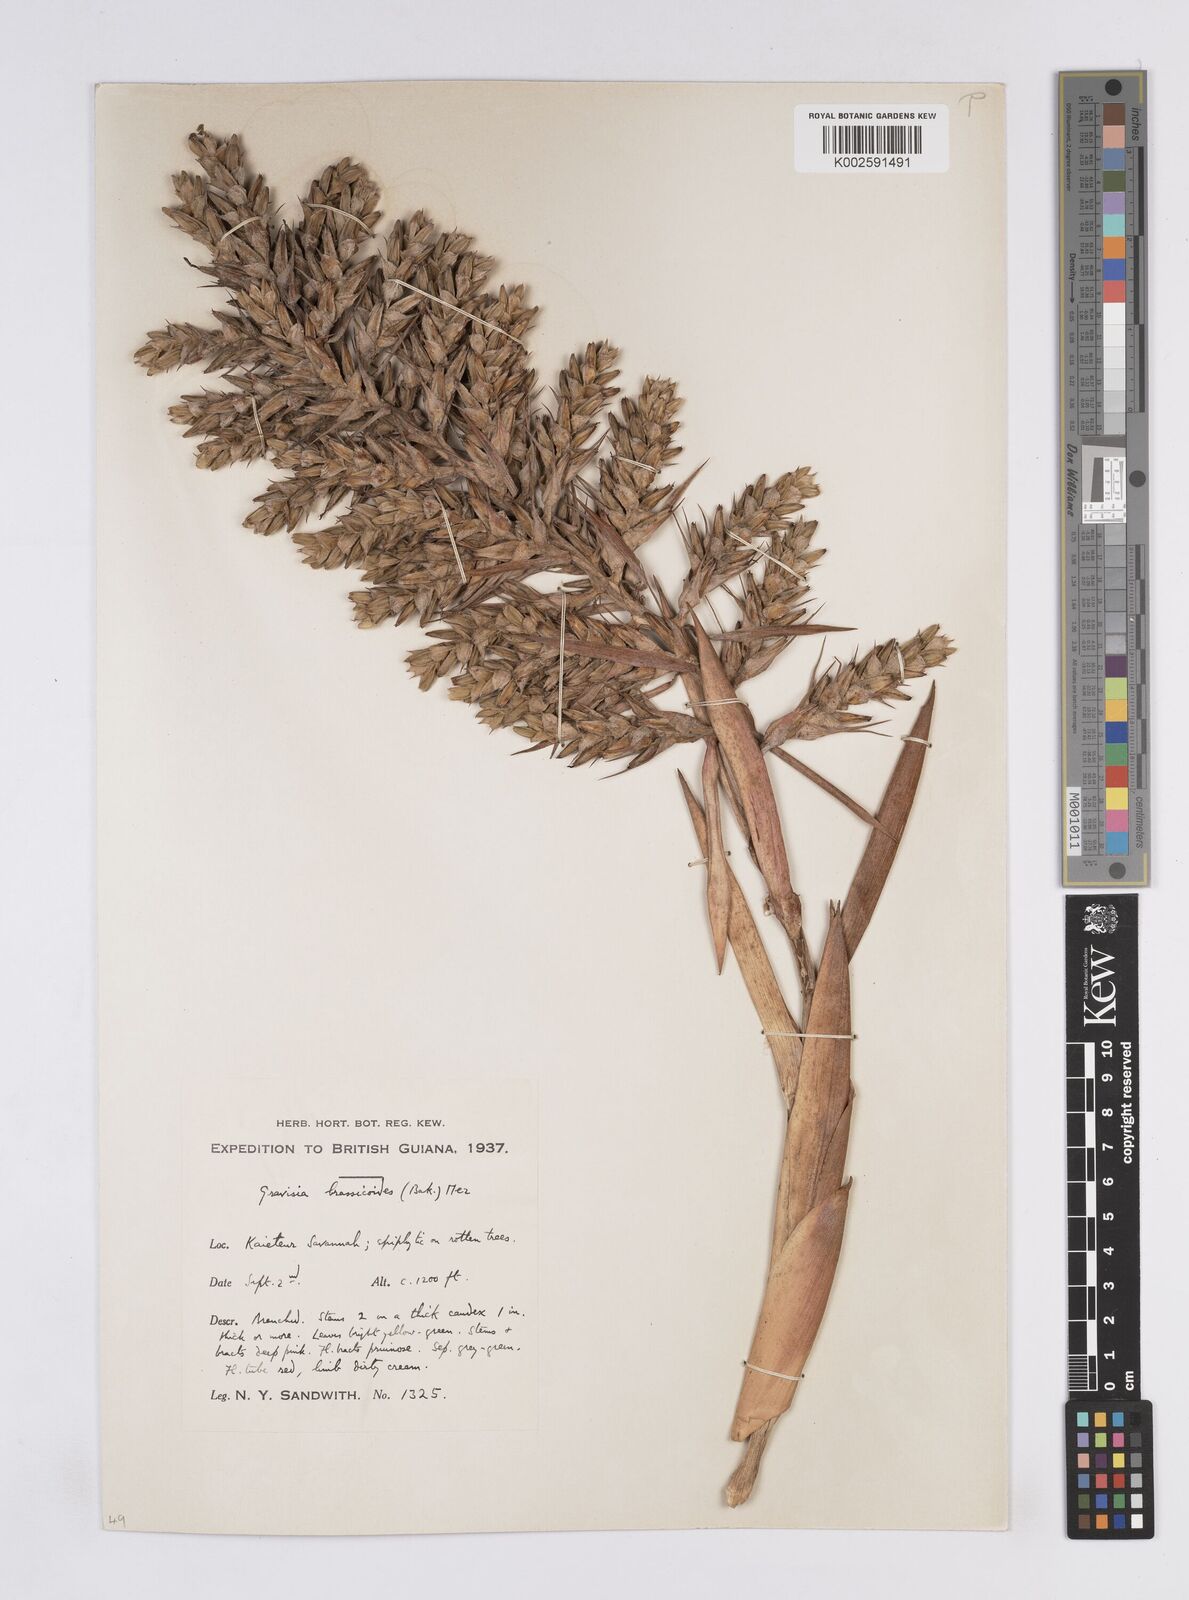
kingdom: Plantae
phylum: Tracheophyta
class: Liliopsida
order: Poales
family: Bromeliaceae
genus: Aechmea
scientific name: Aechmea brassicoides
